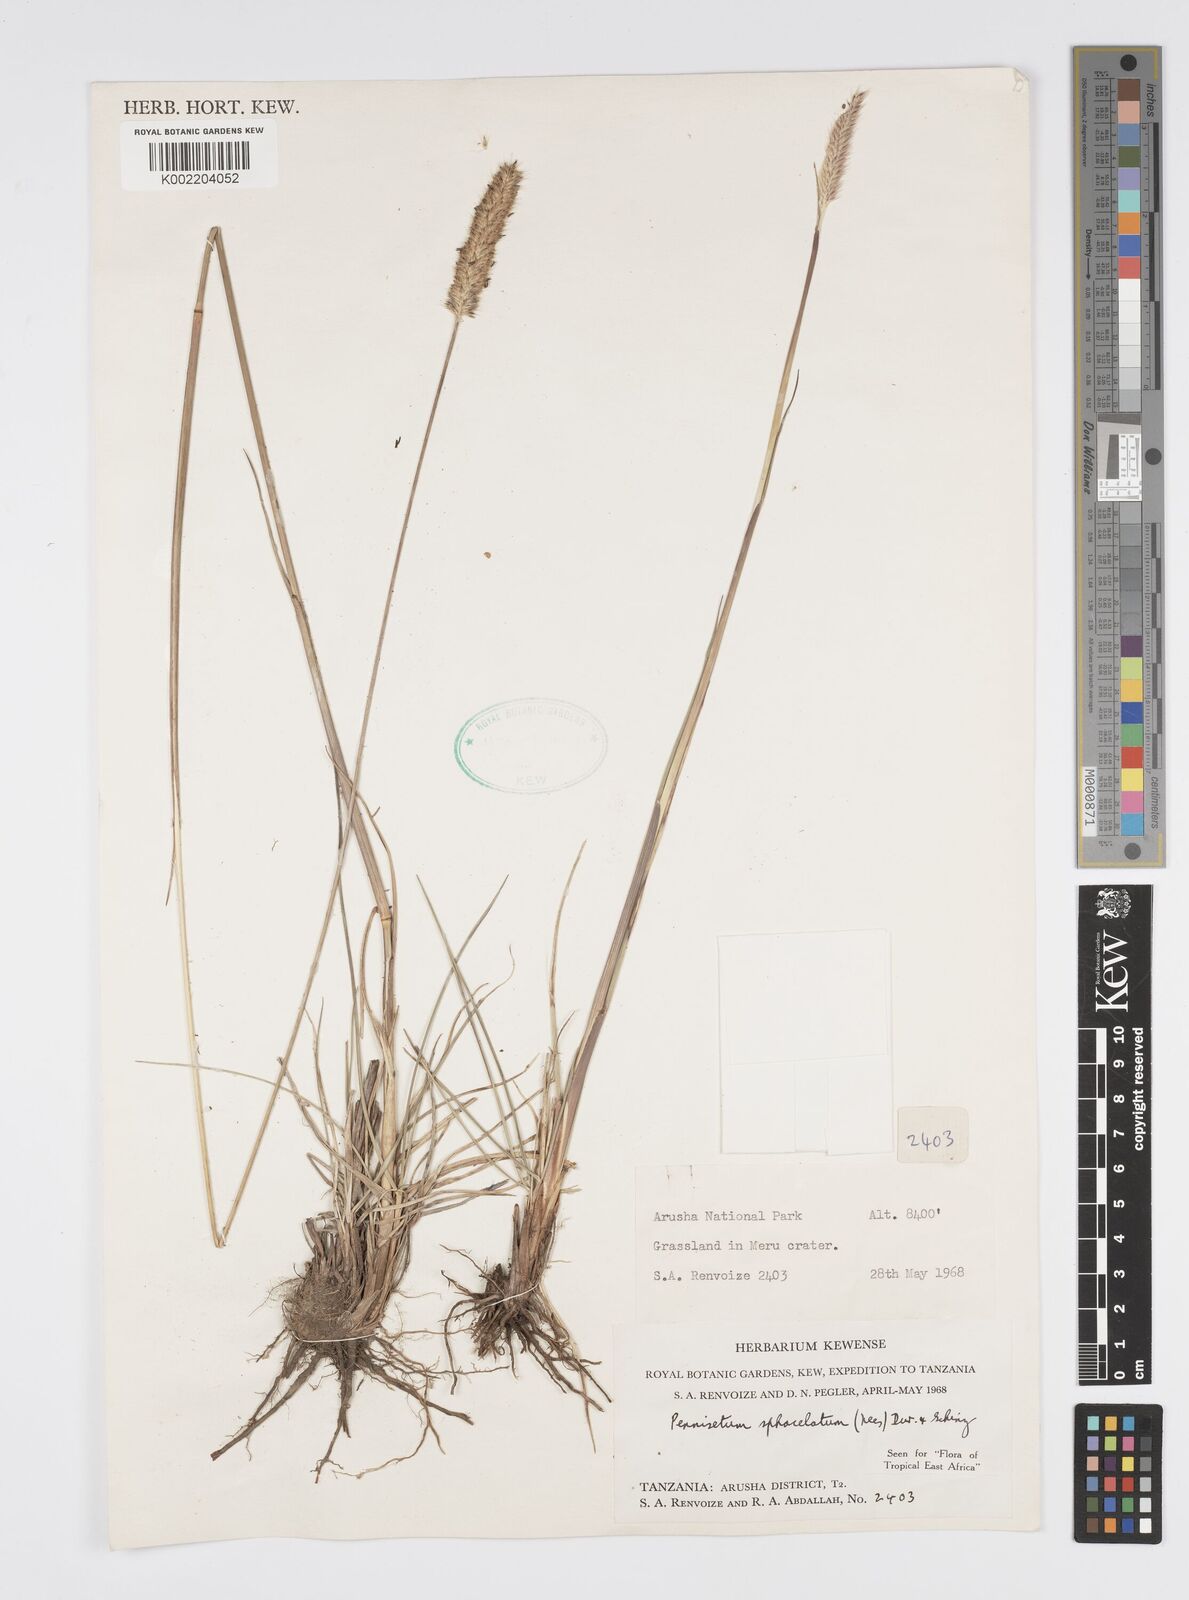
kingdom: Plantae
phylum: Tracheophyta
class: Liliopsida
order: Poales
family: Poaceae
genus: Cenchrus
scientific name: Cenchrus sphacelatus
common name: Bulgras
